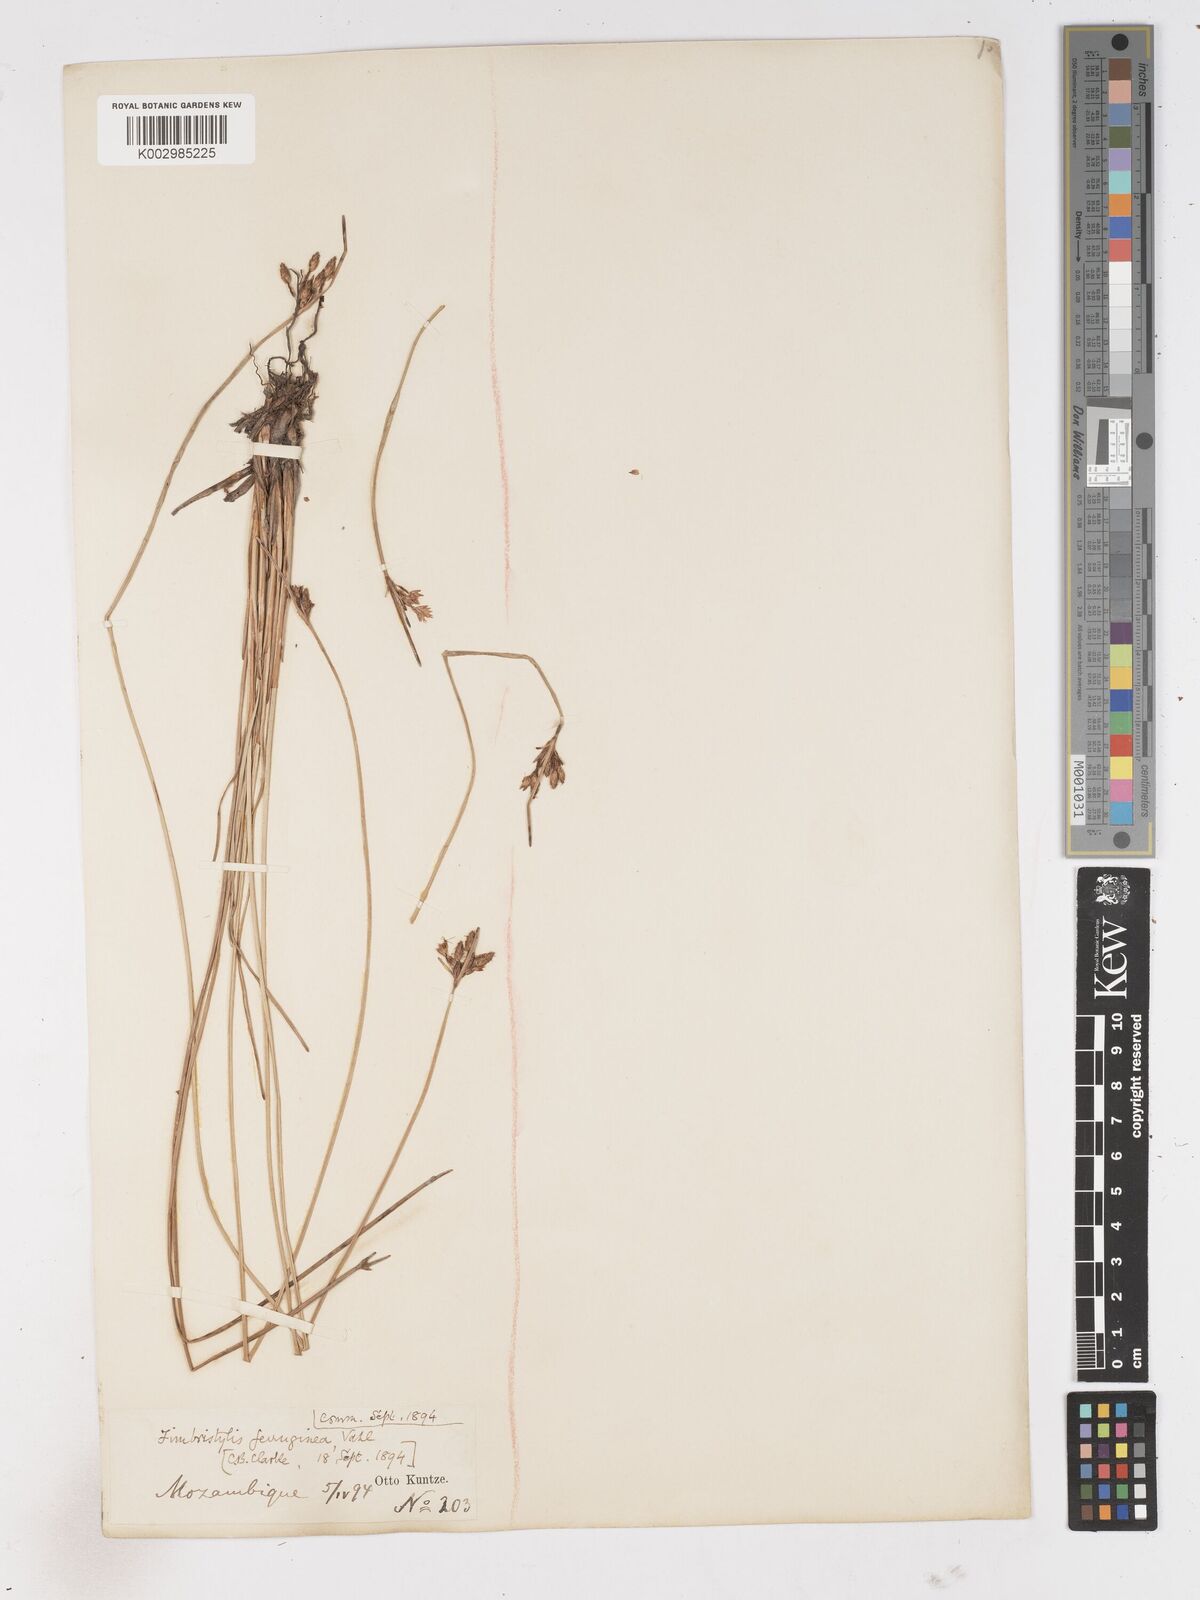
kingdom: Plantae
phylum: Tracheophyta
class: Liliopsida
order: Poales
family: Cyperaceae
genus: Fimbristylis
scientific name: Fimbristylis ferruginea
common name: West indian fimbry
